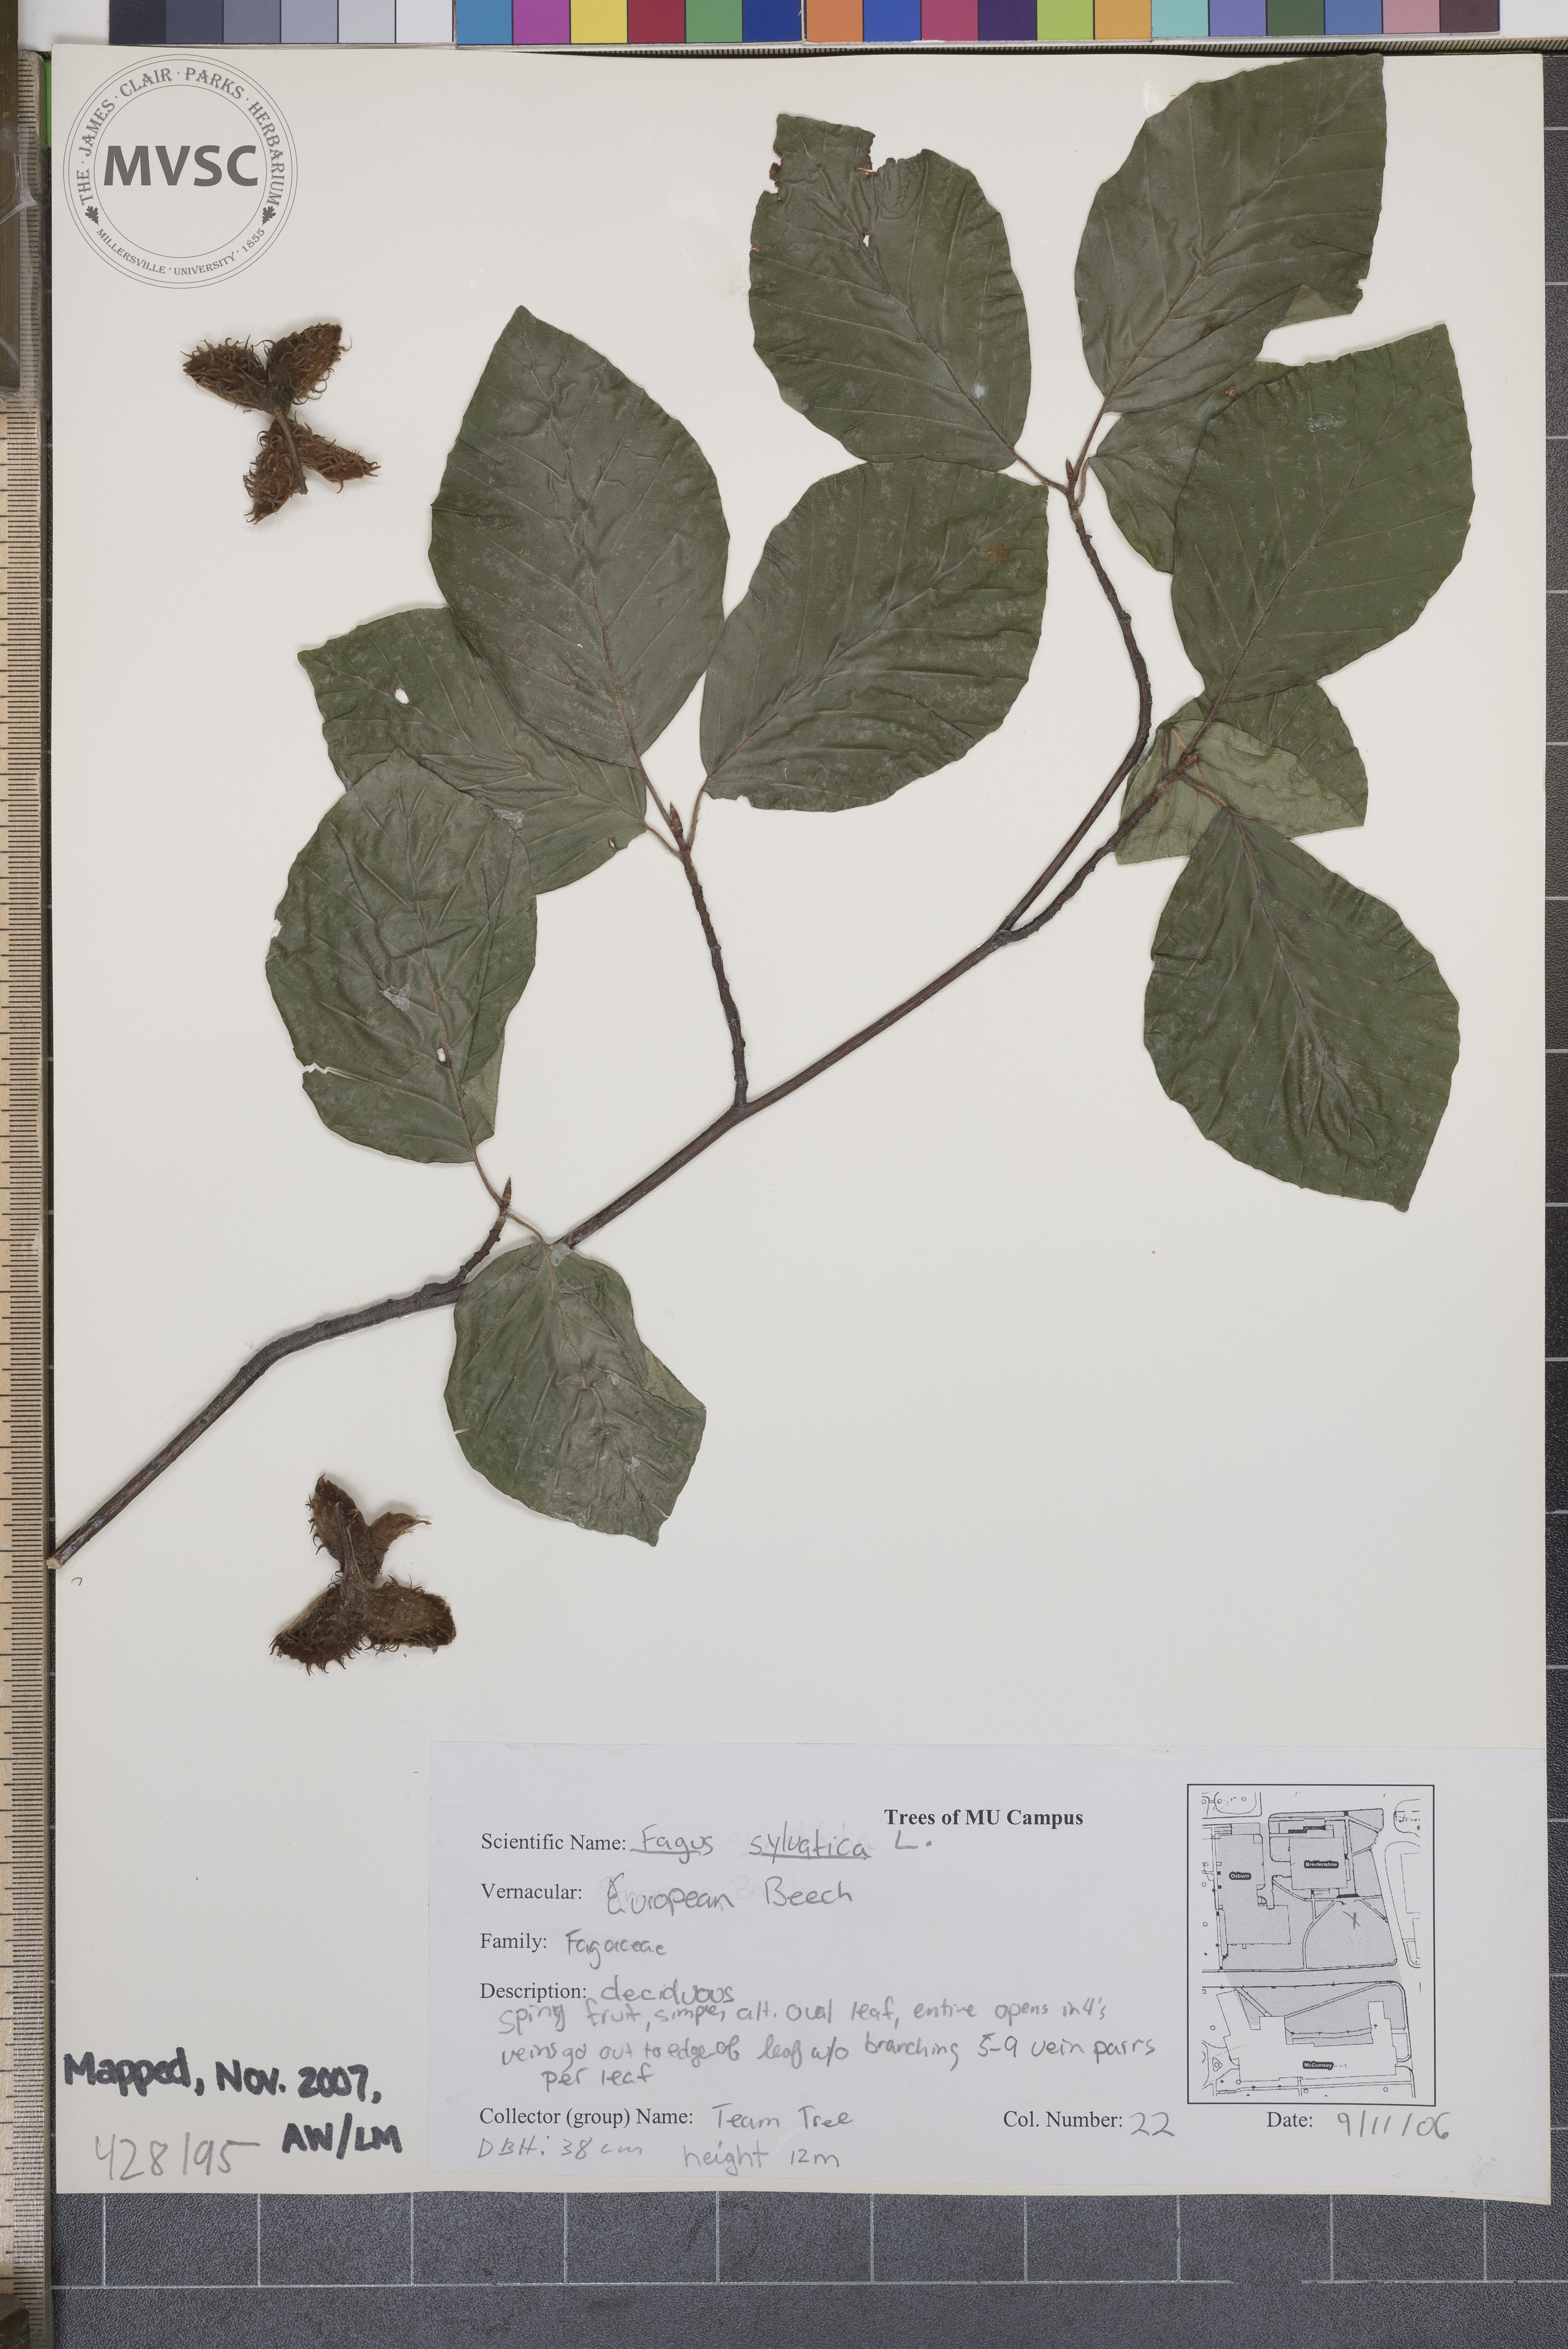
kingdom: Plantae
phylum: Tracheophyta
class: Magnoliopsida
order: Fagales
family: Fagaceae
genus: Fagus
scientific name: Fagus sylvatica
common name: European Beech
